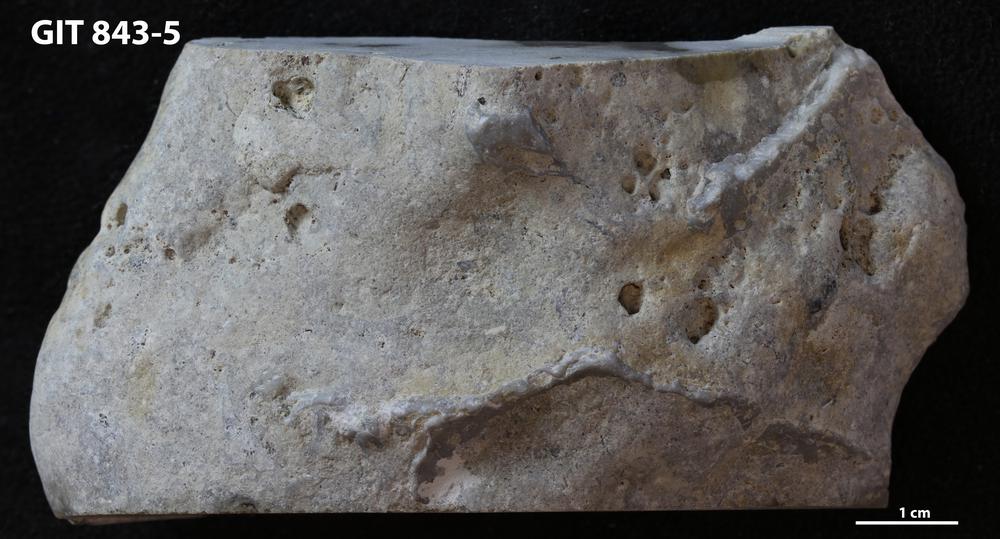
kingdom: Animalia
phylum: Cnidaria
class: Anthozoa
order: Heliolitina
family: Heliolitidae
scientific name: Heliolitidae
